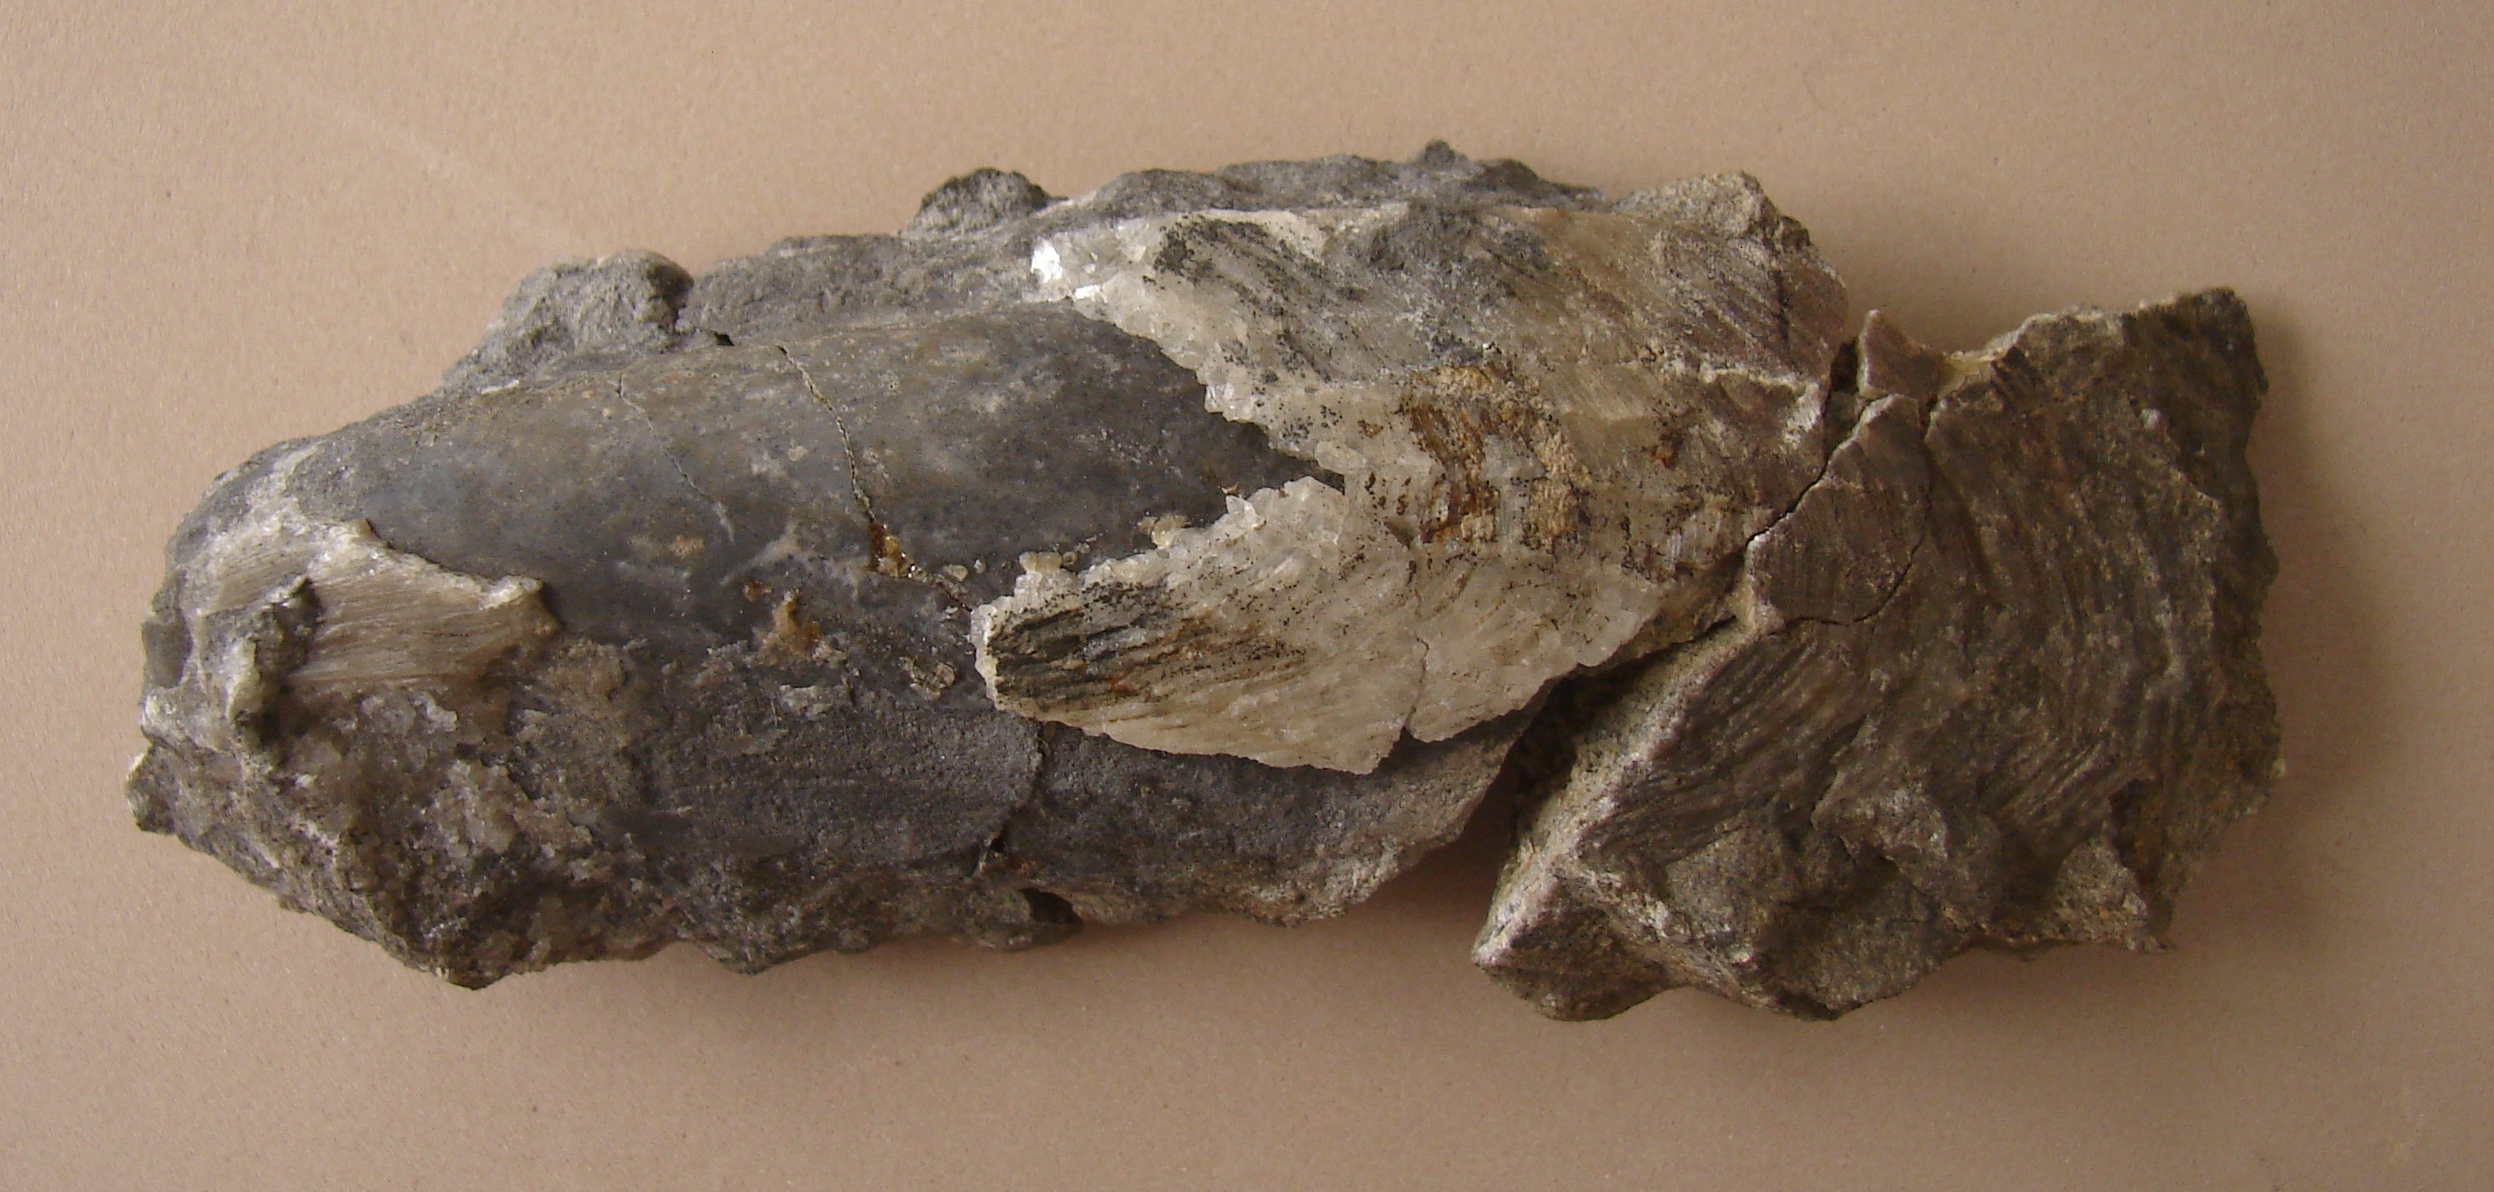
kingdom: Animalia
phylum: Mollusca
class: Bivalvia
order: Venerida
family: Kalenteridae
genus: Myoconcha
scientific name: Myoconcha scabra
